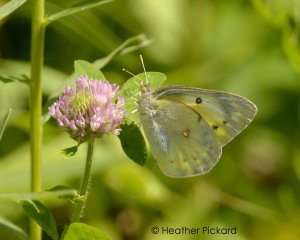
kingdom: Animalia
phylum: Arthropoda
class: Insecta
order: Lepidoptera
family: Pieridae
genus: Colias
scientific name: Colias philodice
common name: Clouded Sulphur
